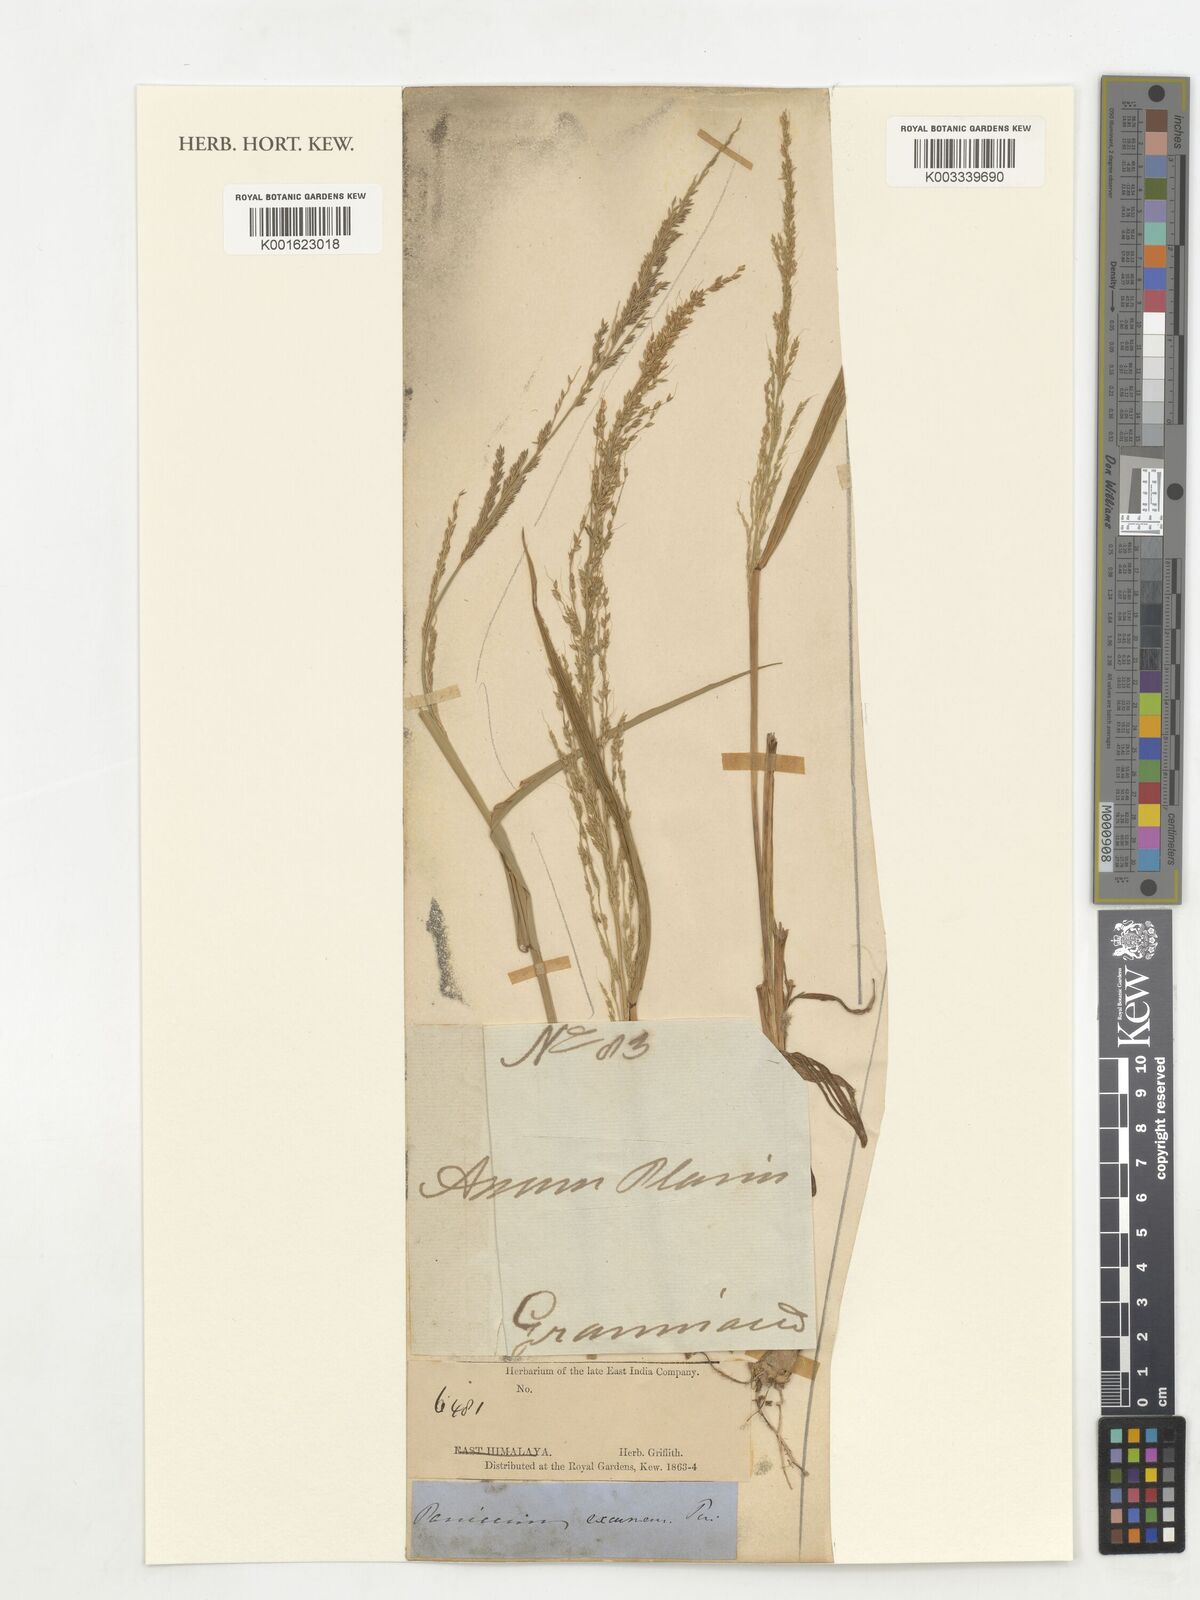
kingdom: Plantae
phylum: Tracheophyta
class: Liliopsida
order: Poales
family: Poaceae
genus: Poa
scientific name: Poa
